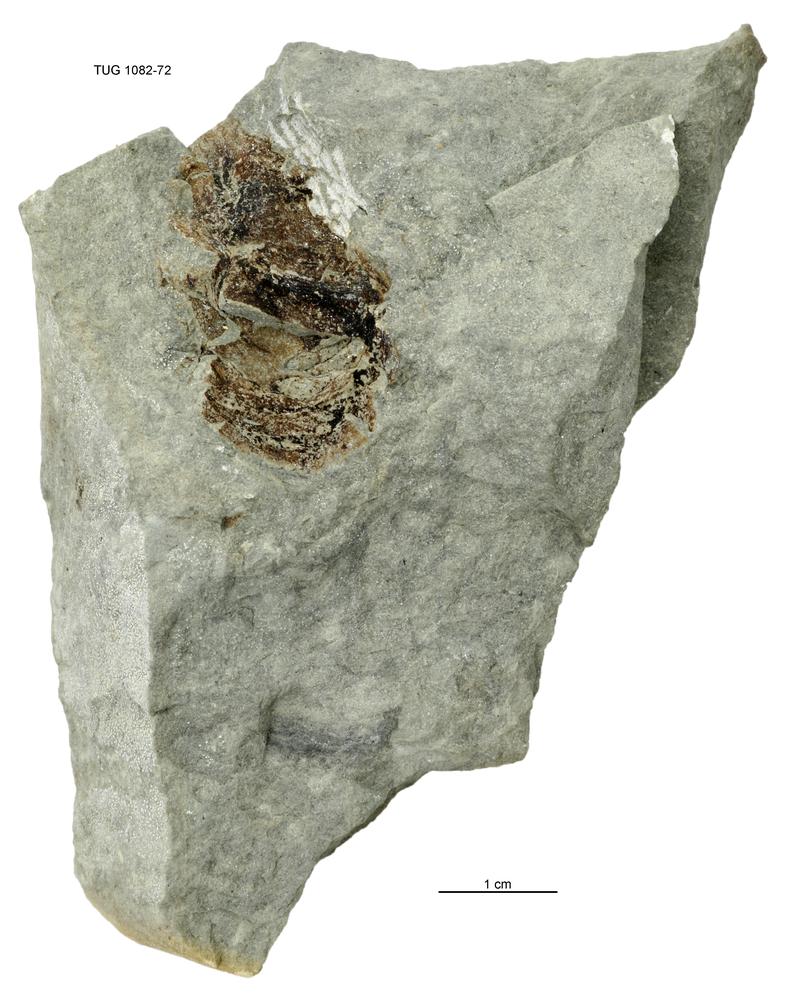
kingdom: Animalia
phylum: Cnidaria
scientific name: Cnidaria
